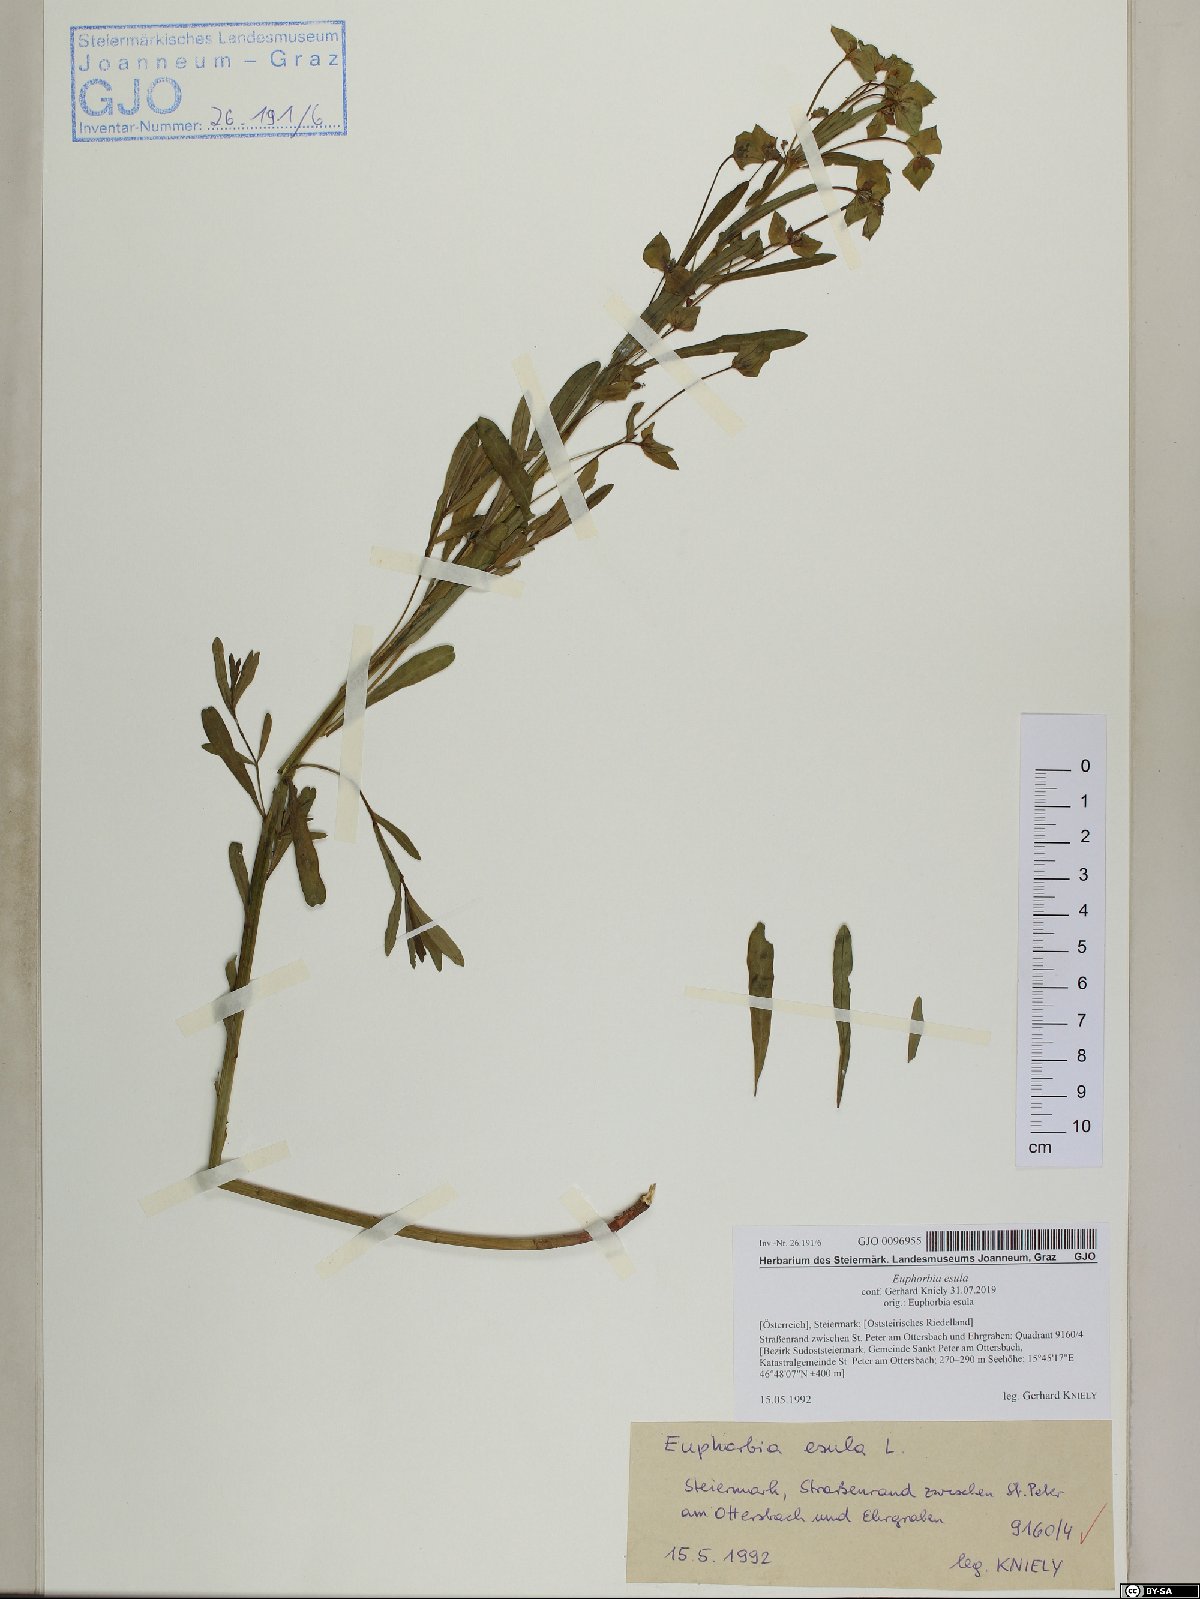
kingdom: Plantae
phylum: Tracheophyta
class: Magnoliopsida
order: Malpighiales
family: Euphorbiaceae
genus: Euphorbia
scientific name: Euphorbia esula
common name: Leafy spurge
